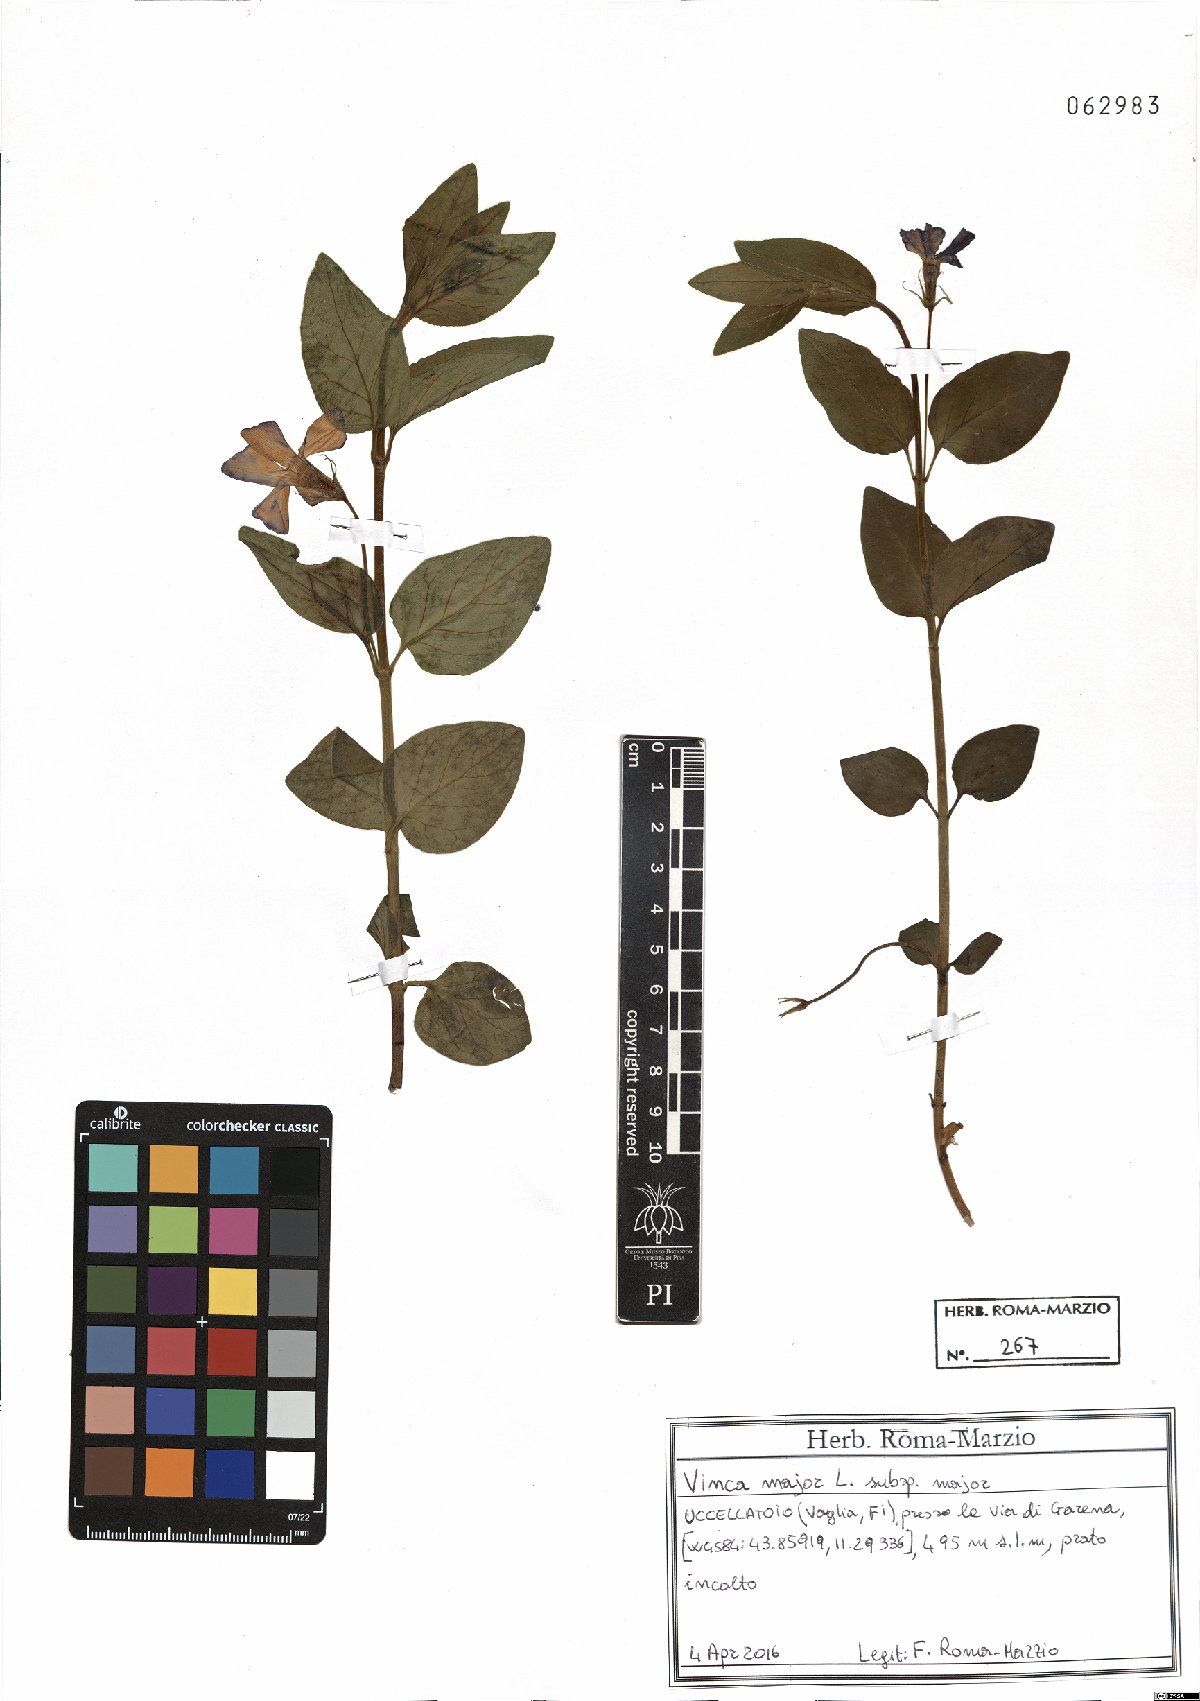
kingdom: Plantae
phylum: Tracheophyta
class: Magnoliopsida
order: Gentianales
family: Apocynaceae
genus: Vinca
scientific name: Vinca major
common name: Greater periwinkle
